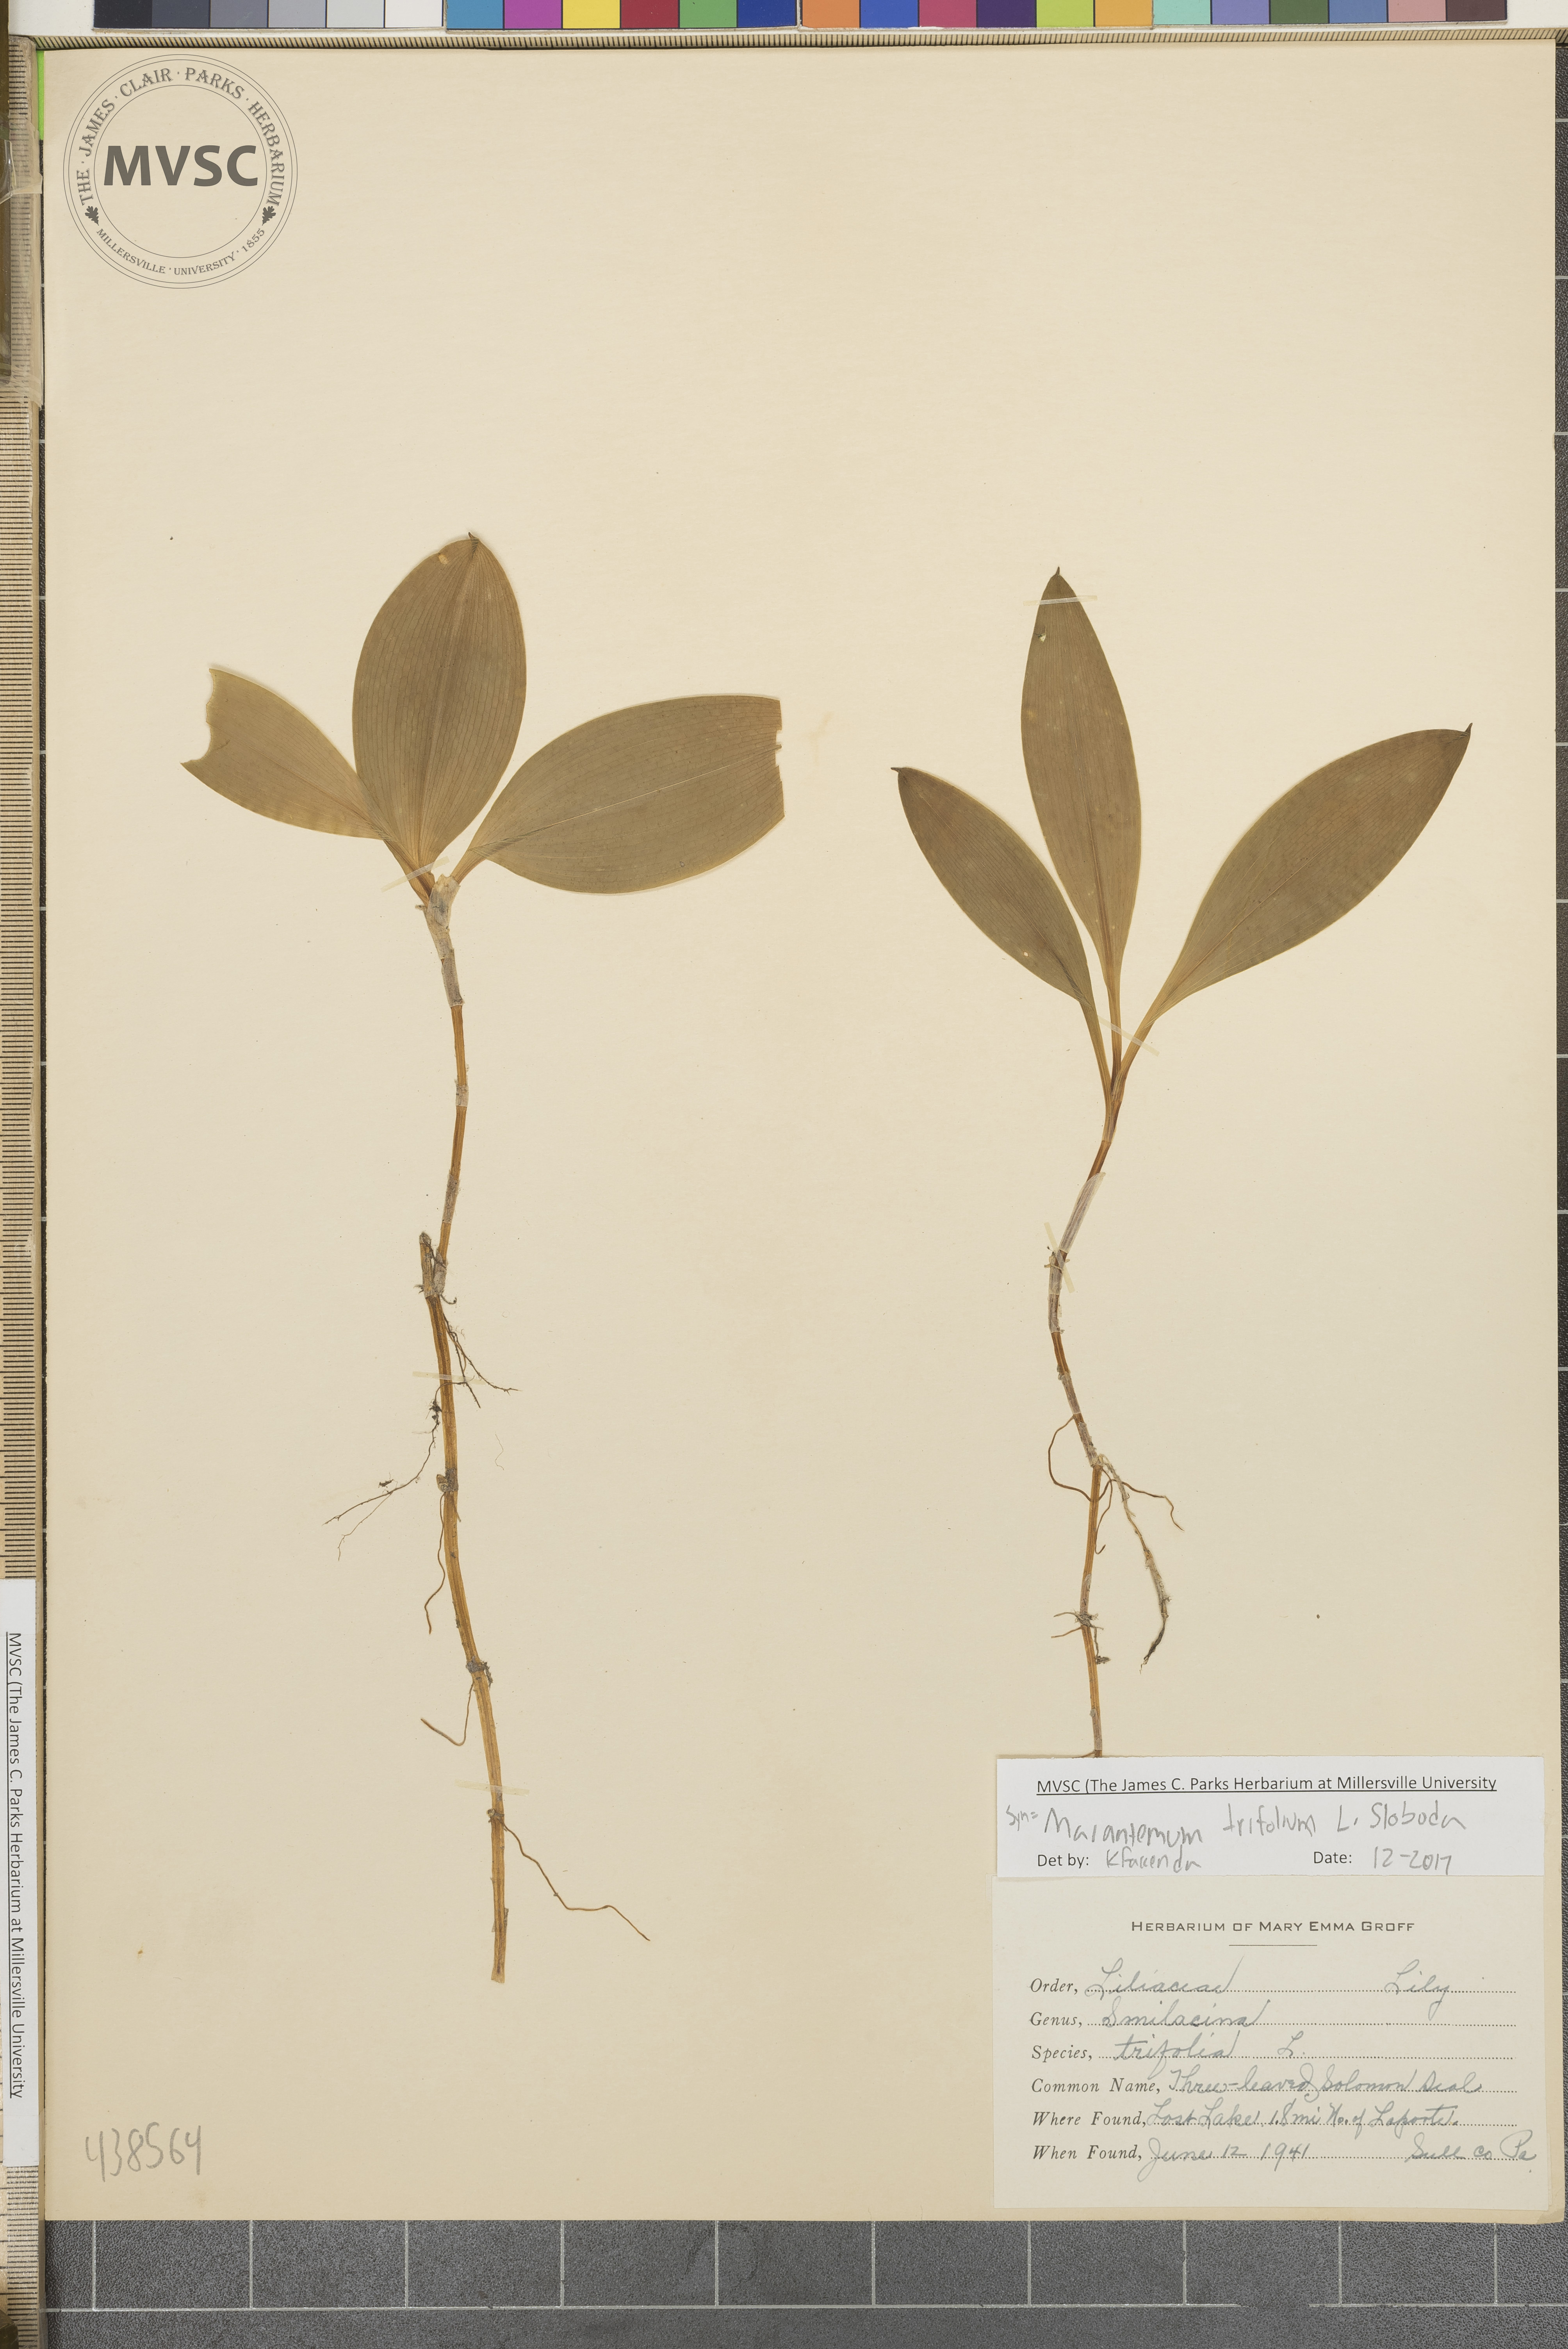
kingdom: Plantae
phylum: Tracheophyta
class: Liliopsida
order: Asparagales
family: Asparagaceae
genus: Maianthemum
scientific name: Maianthemum trifolium
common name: Swamp false solomon's seal
